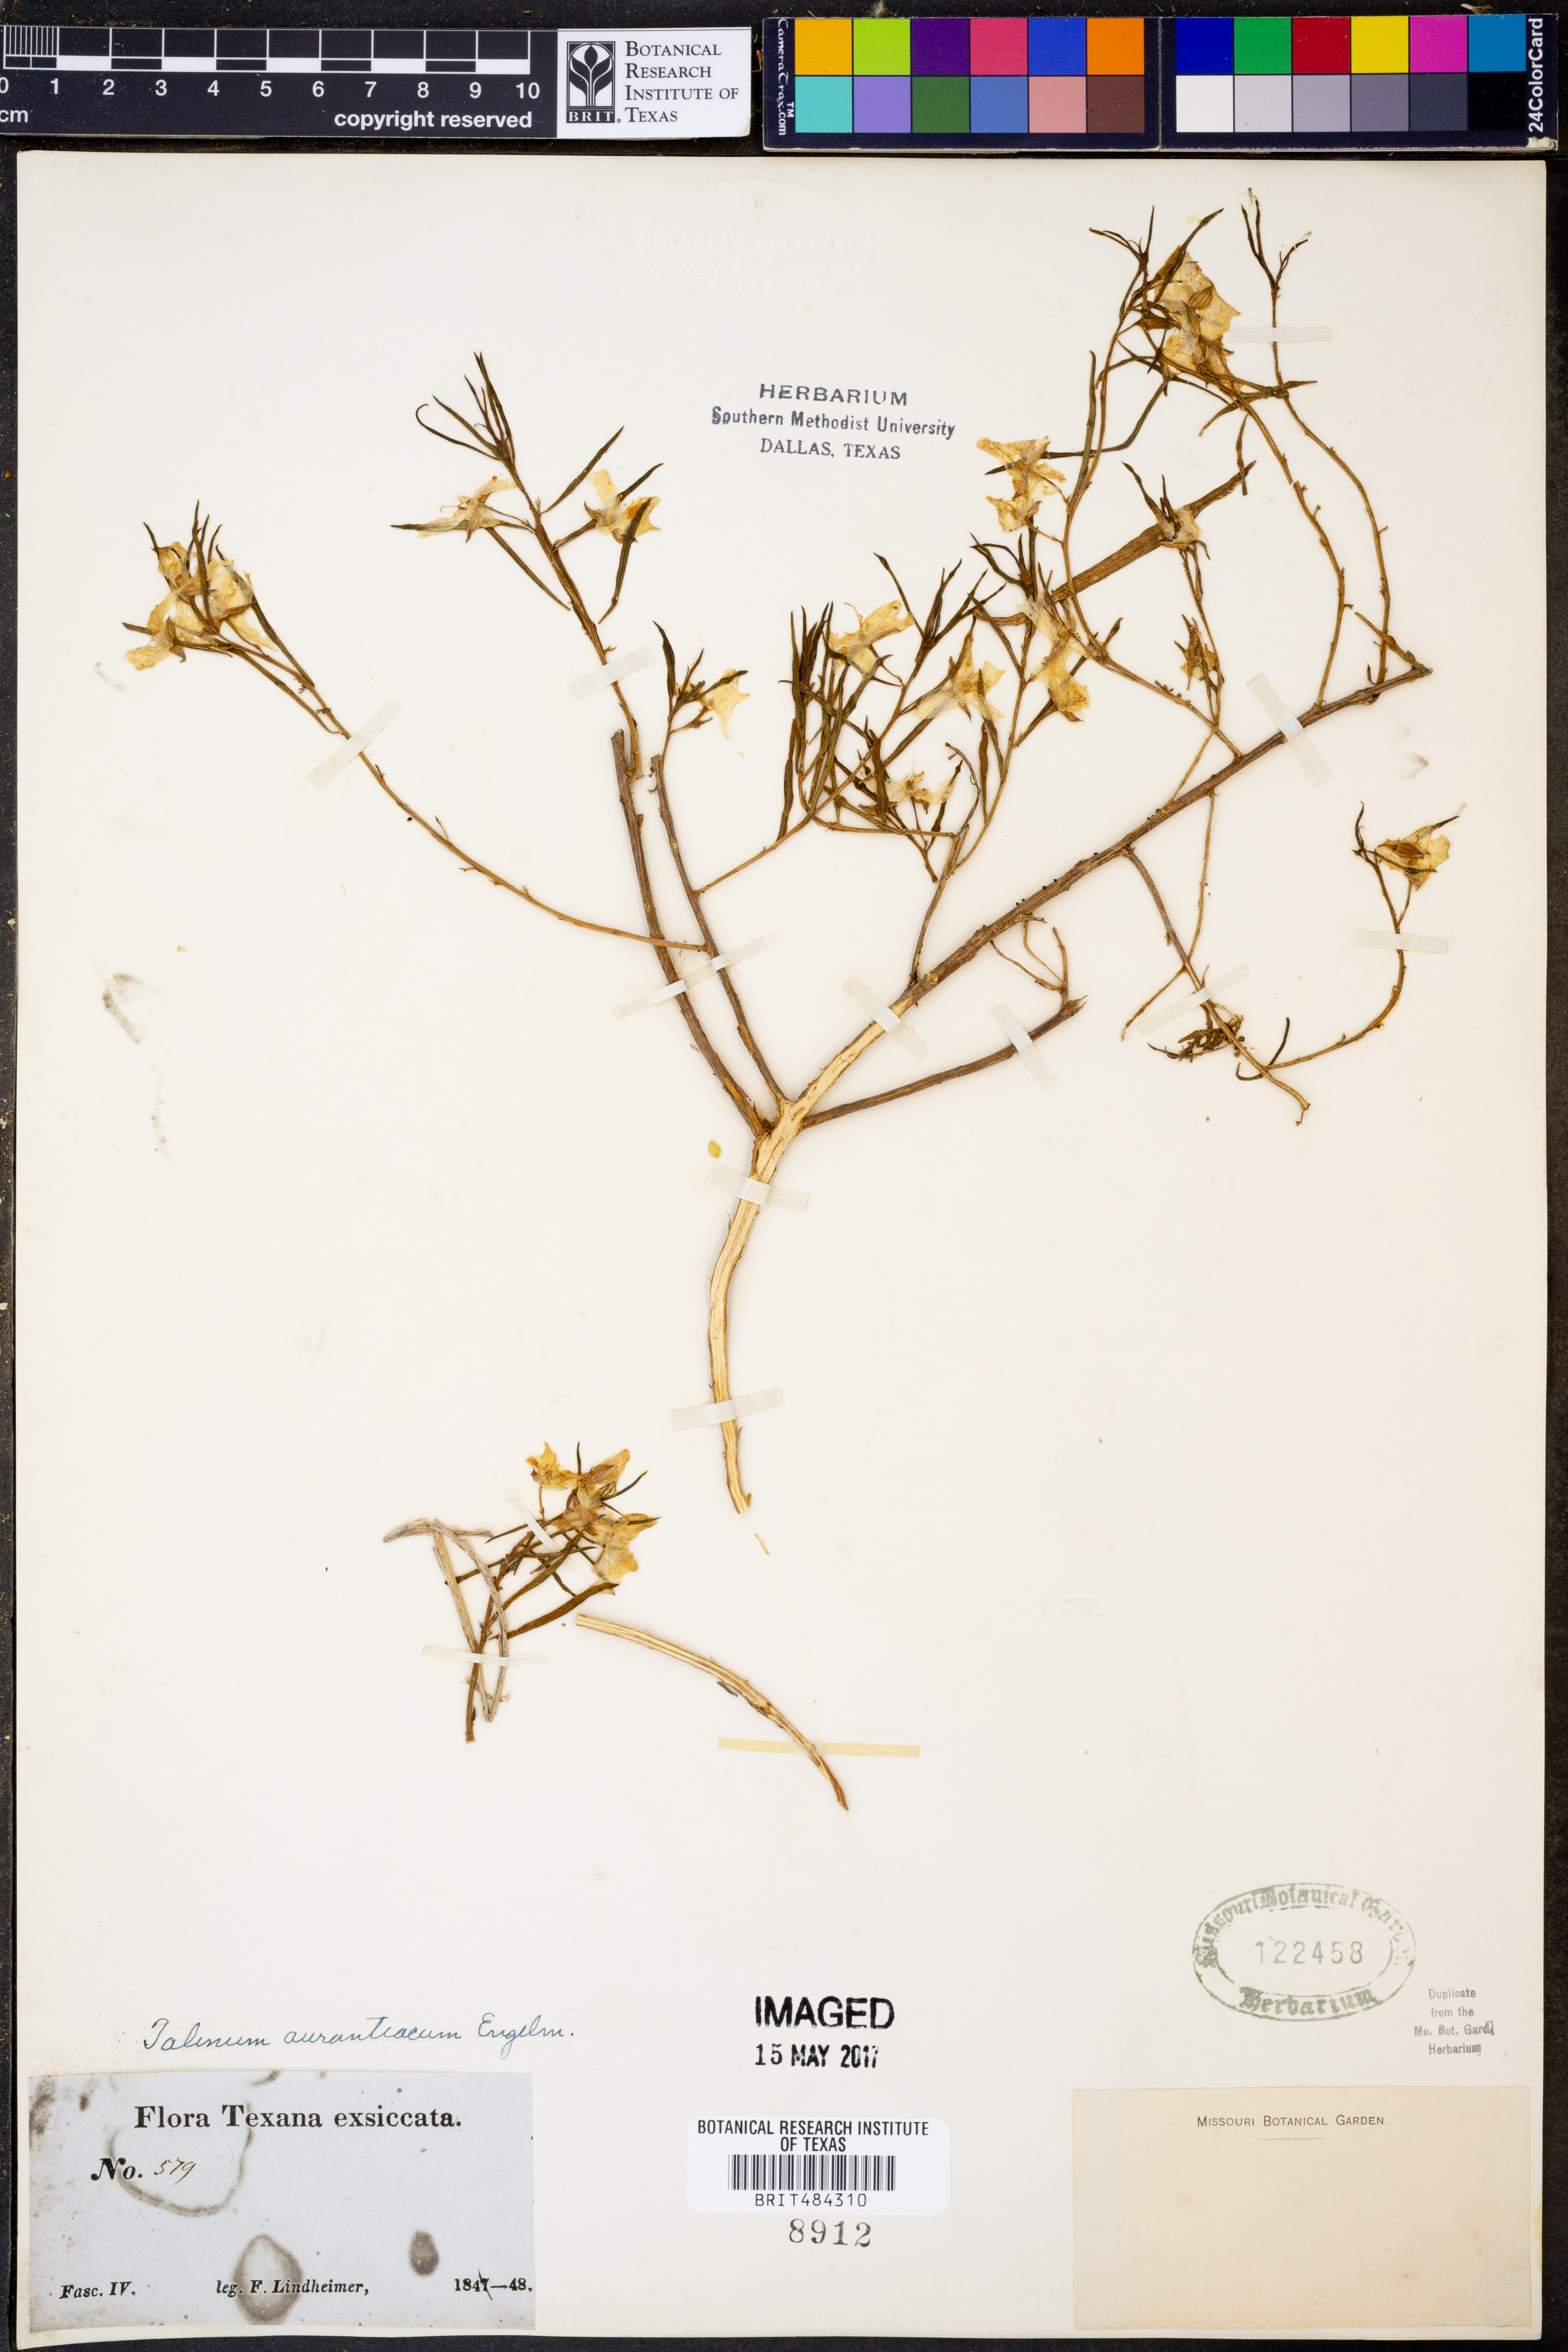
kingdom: Plantae
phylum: Tracheophyta
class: Magnoliopsida
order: Caryophyllales
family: Montiaceae
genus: Phemeranthus
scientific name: Phemeranthus aurantiacus
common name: Orange fameflower
